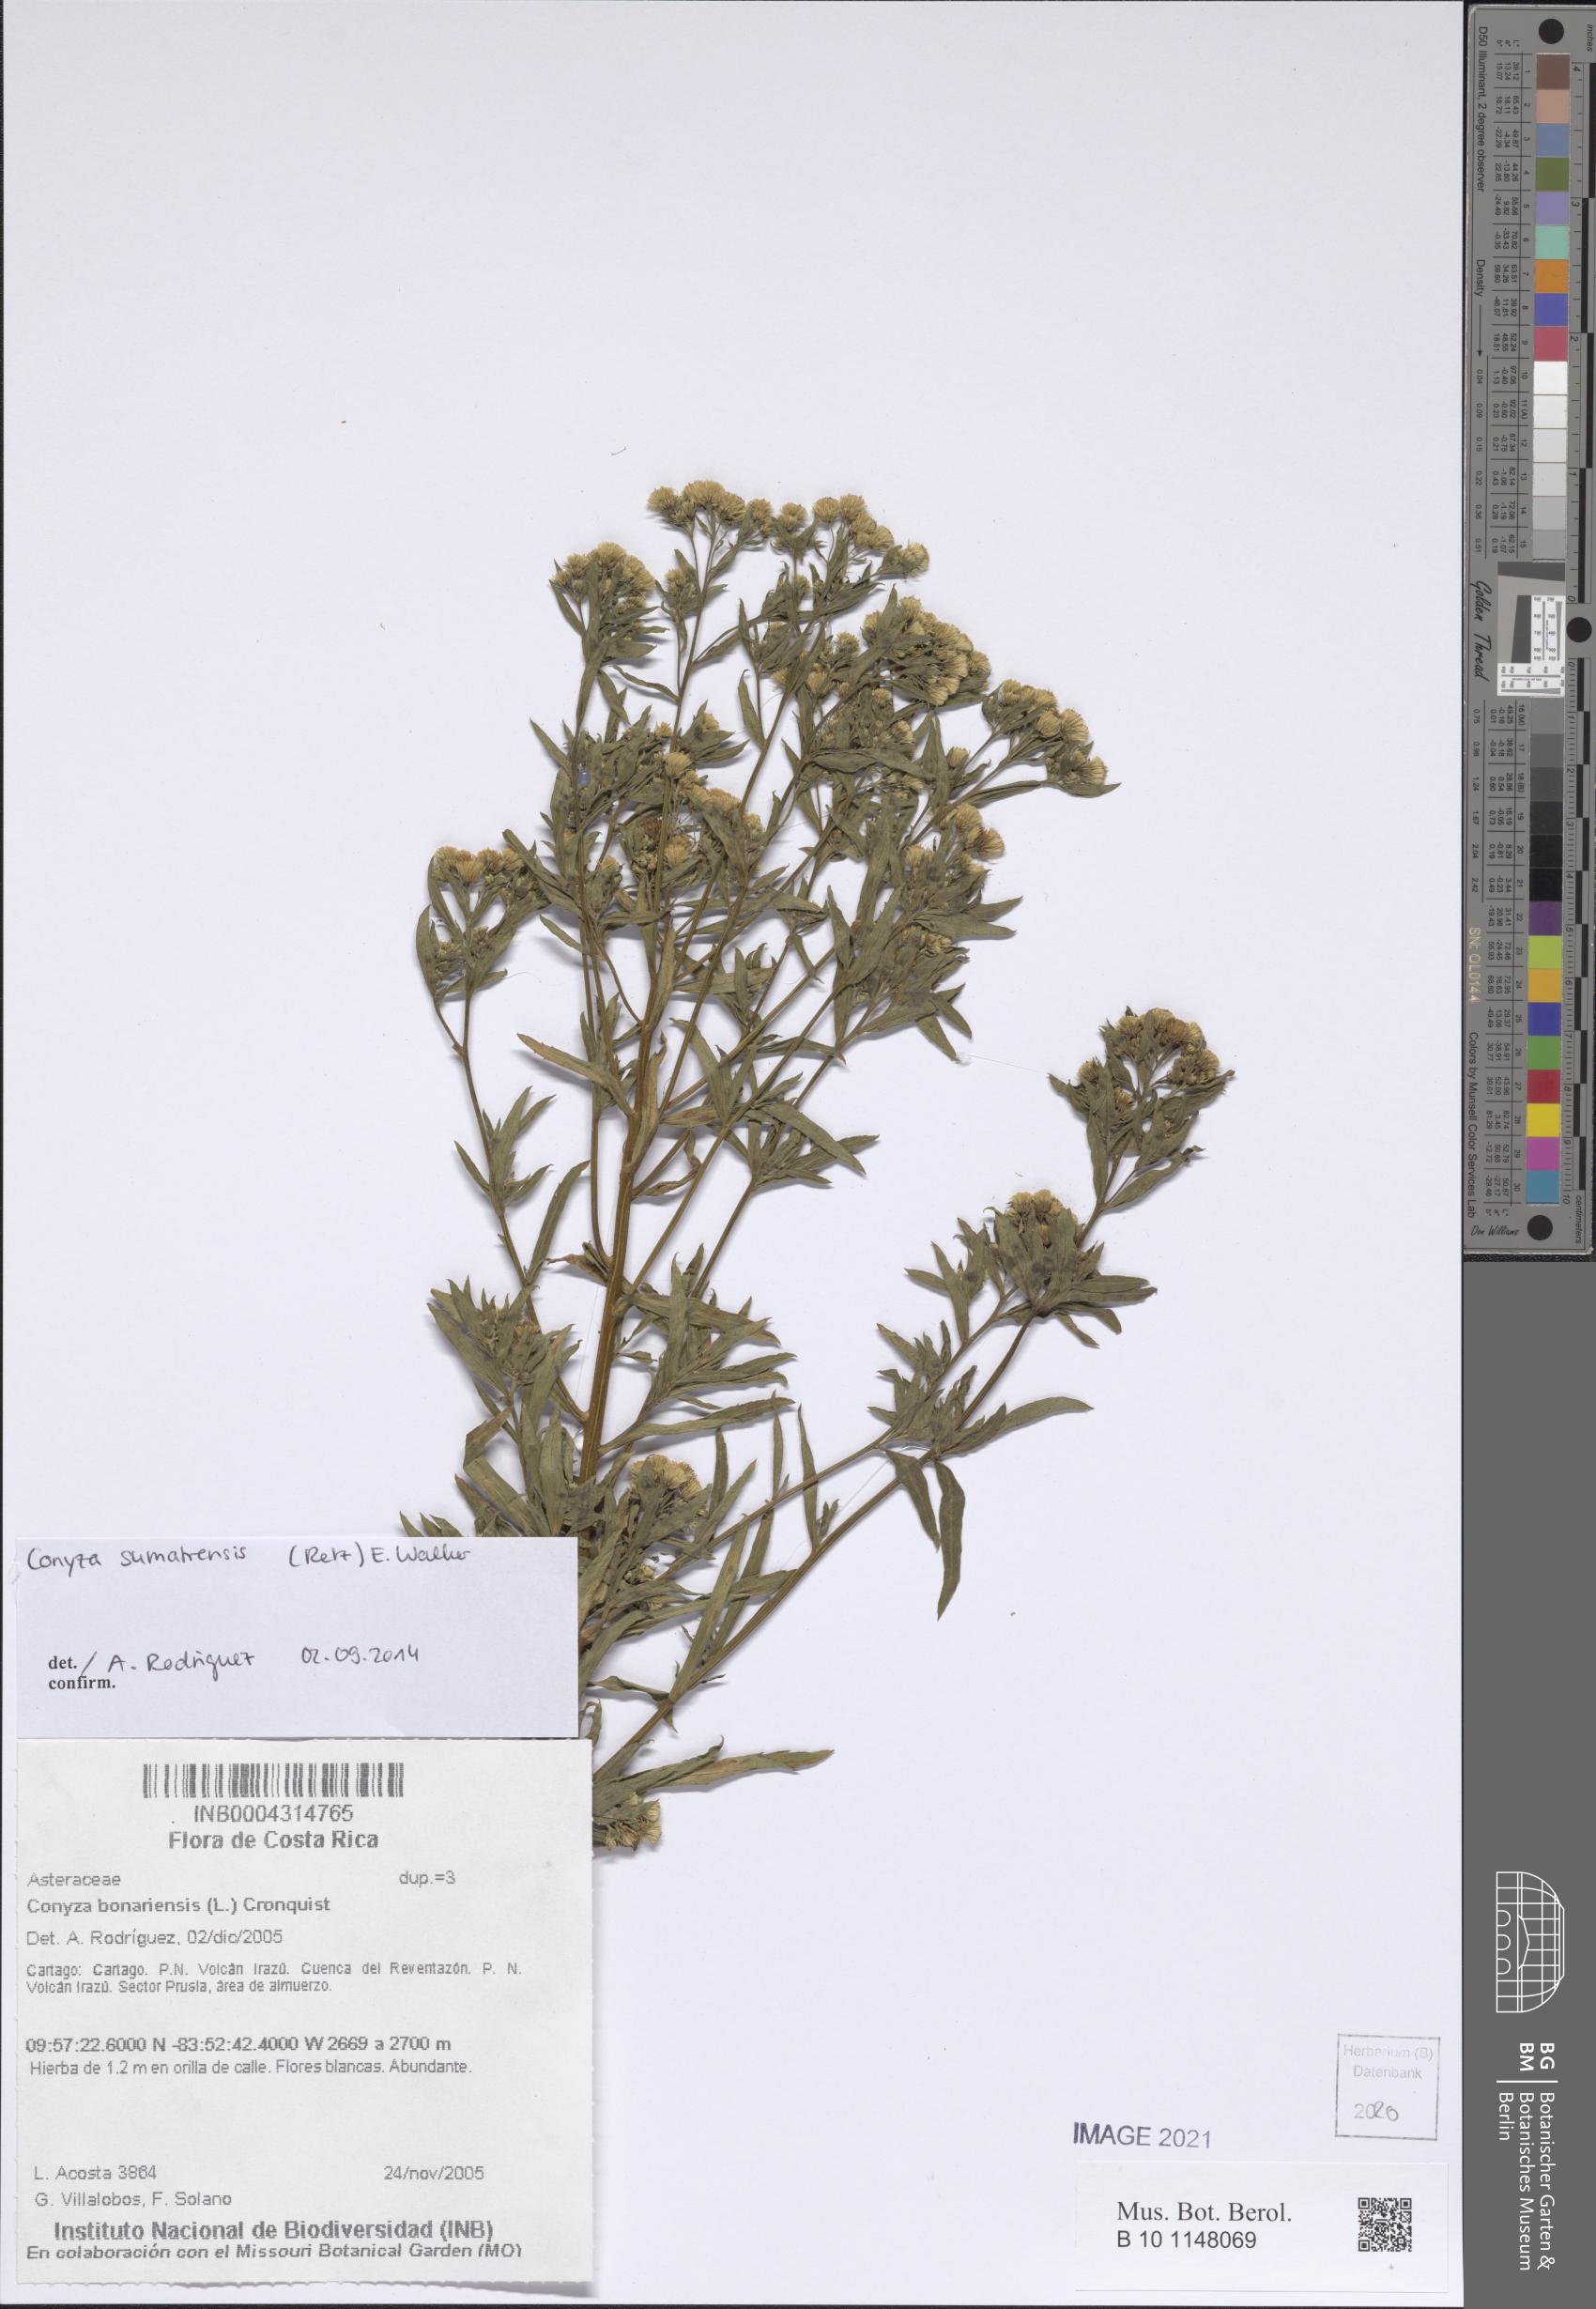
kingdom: Plantae
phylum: Tracheophyta
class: Magnoliopsida
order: Asterales
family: Asteraceae
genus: Erigeron
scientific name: Erigeron sumatrensis
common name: Daisy
